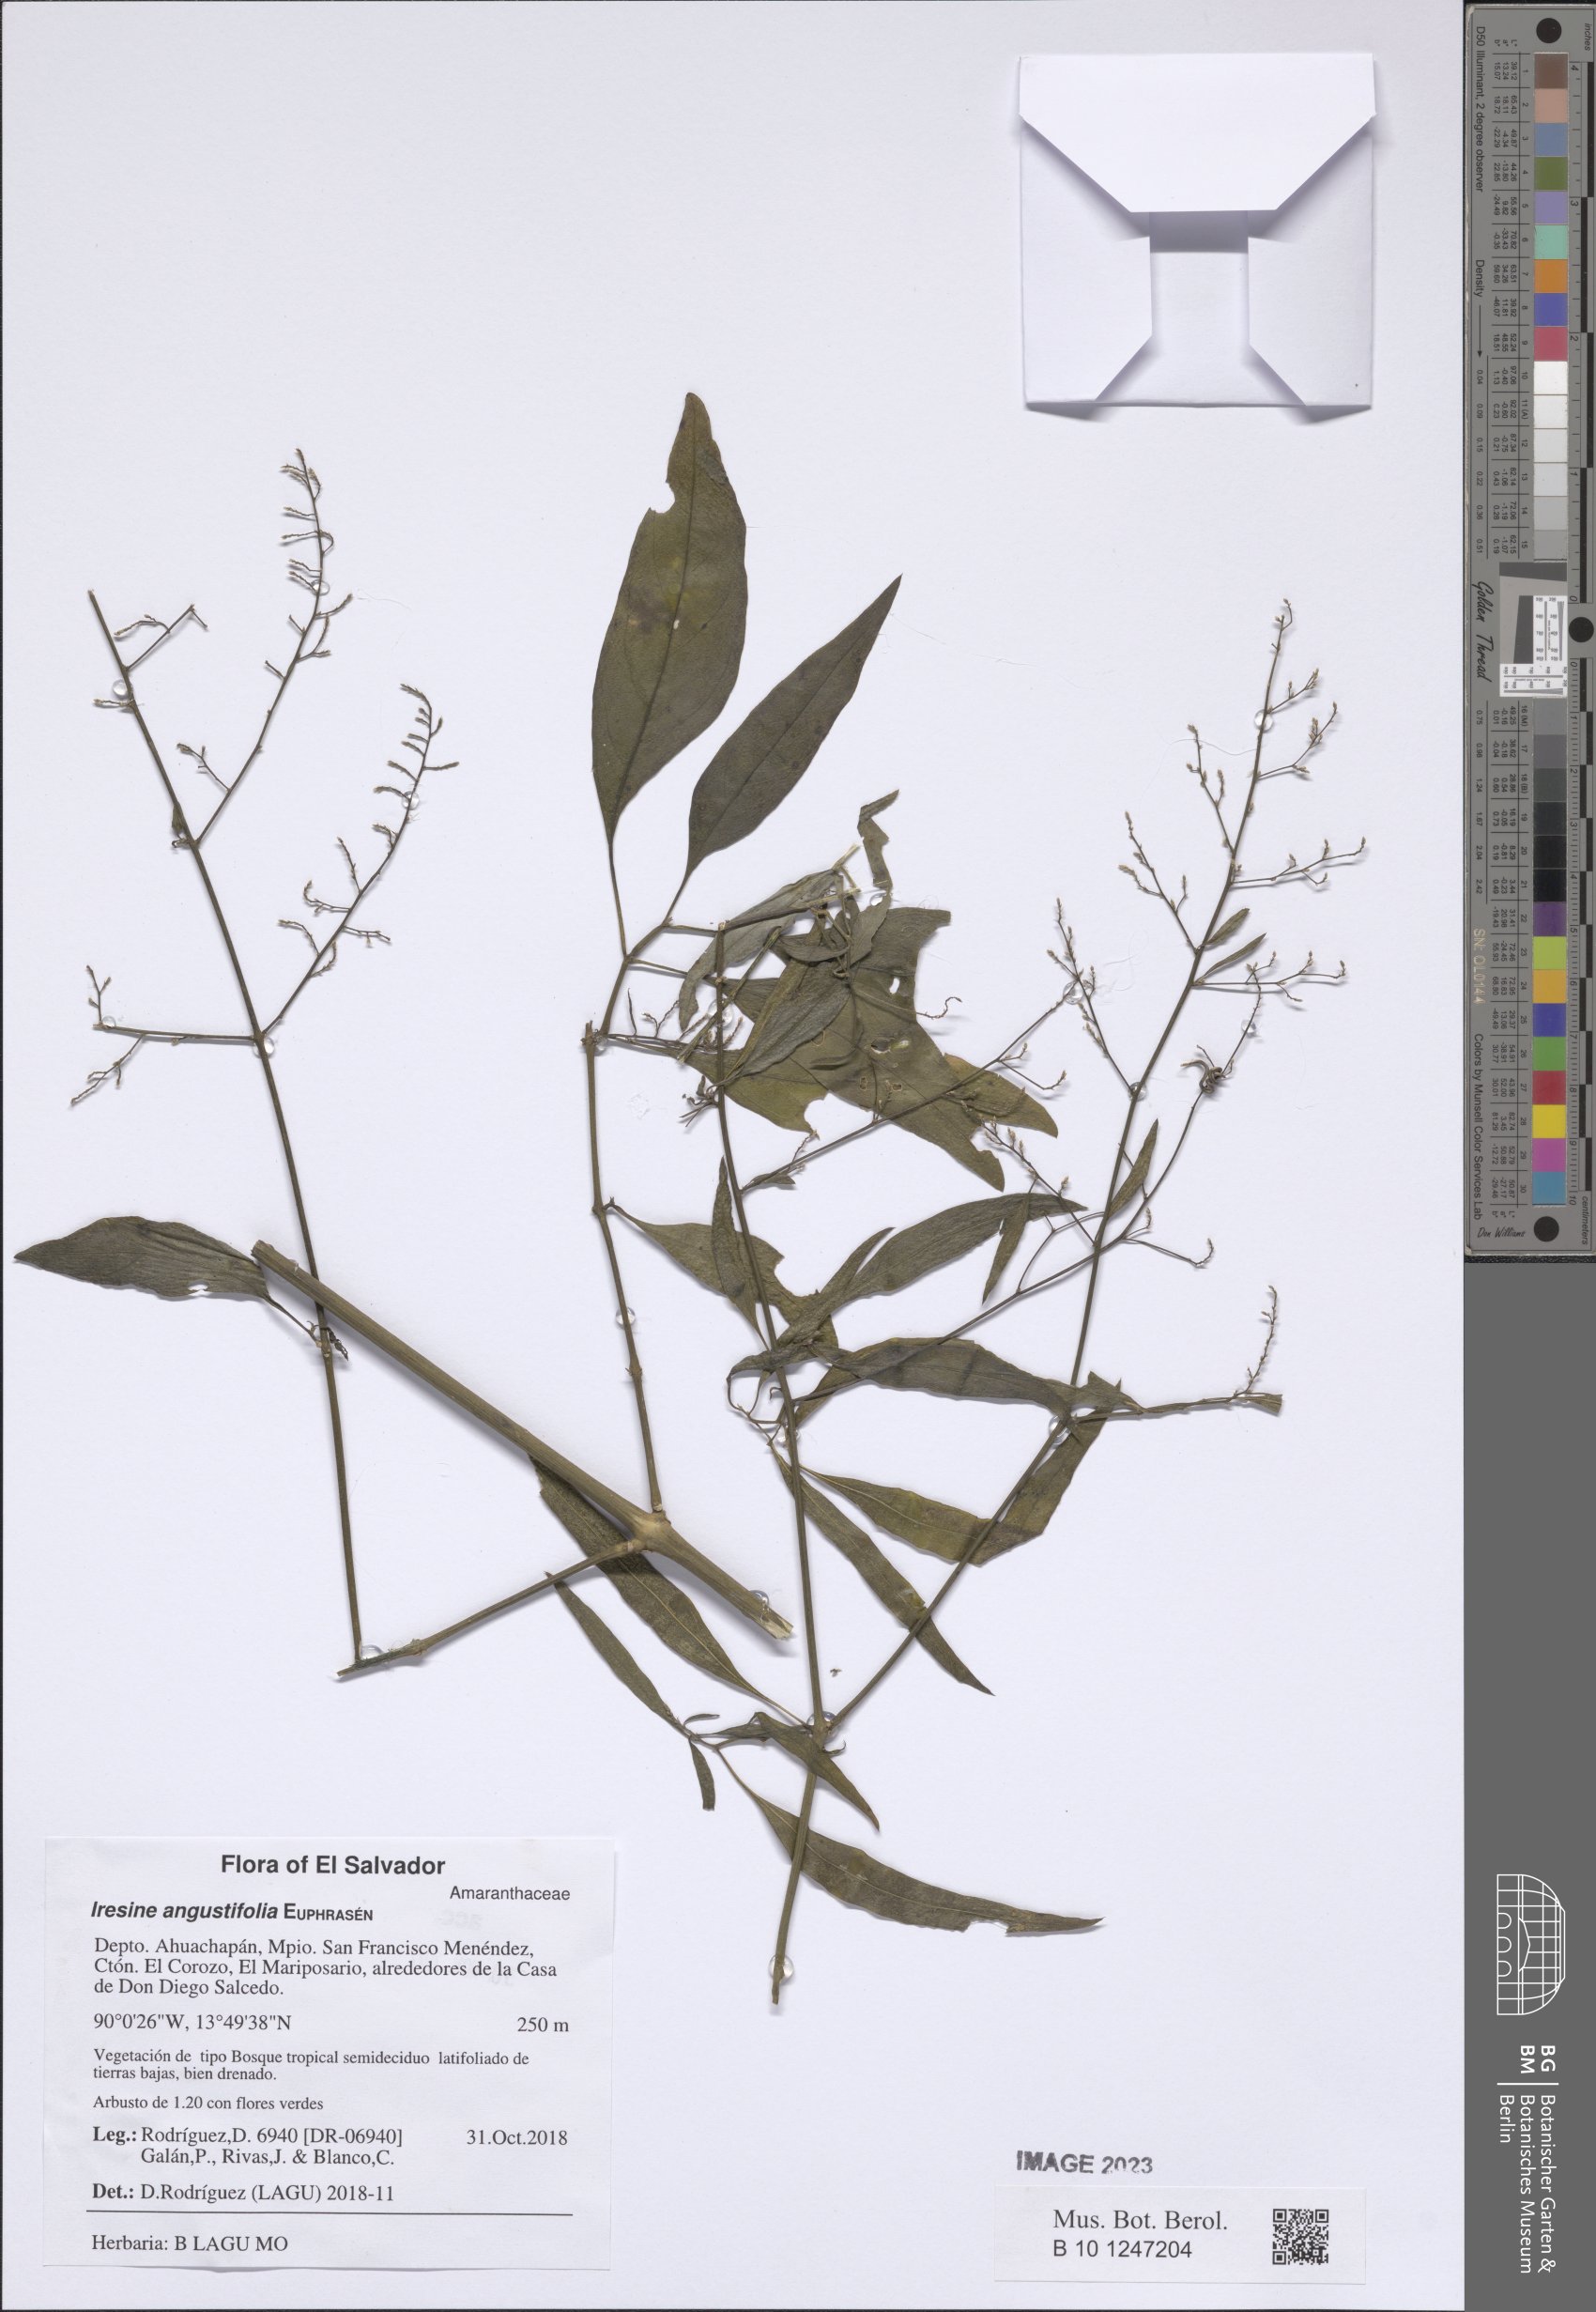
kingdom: Plantae
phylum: Tracheophyta
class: Magnoliopsida
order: Caryophyllales
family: Amaranthaceae
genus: Iresine
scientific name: Iresine angustifolia
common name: White snowplant
